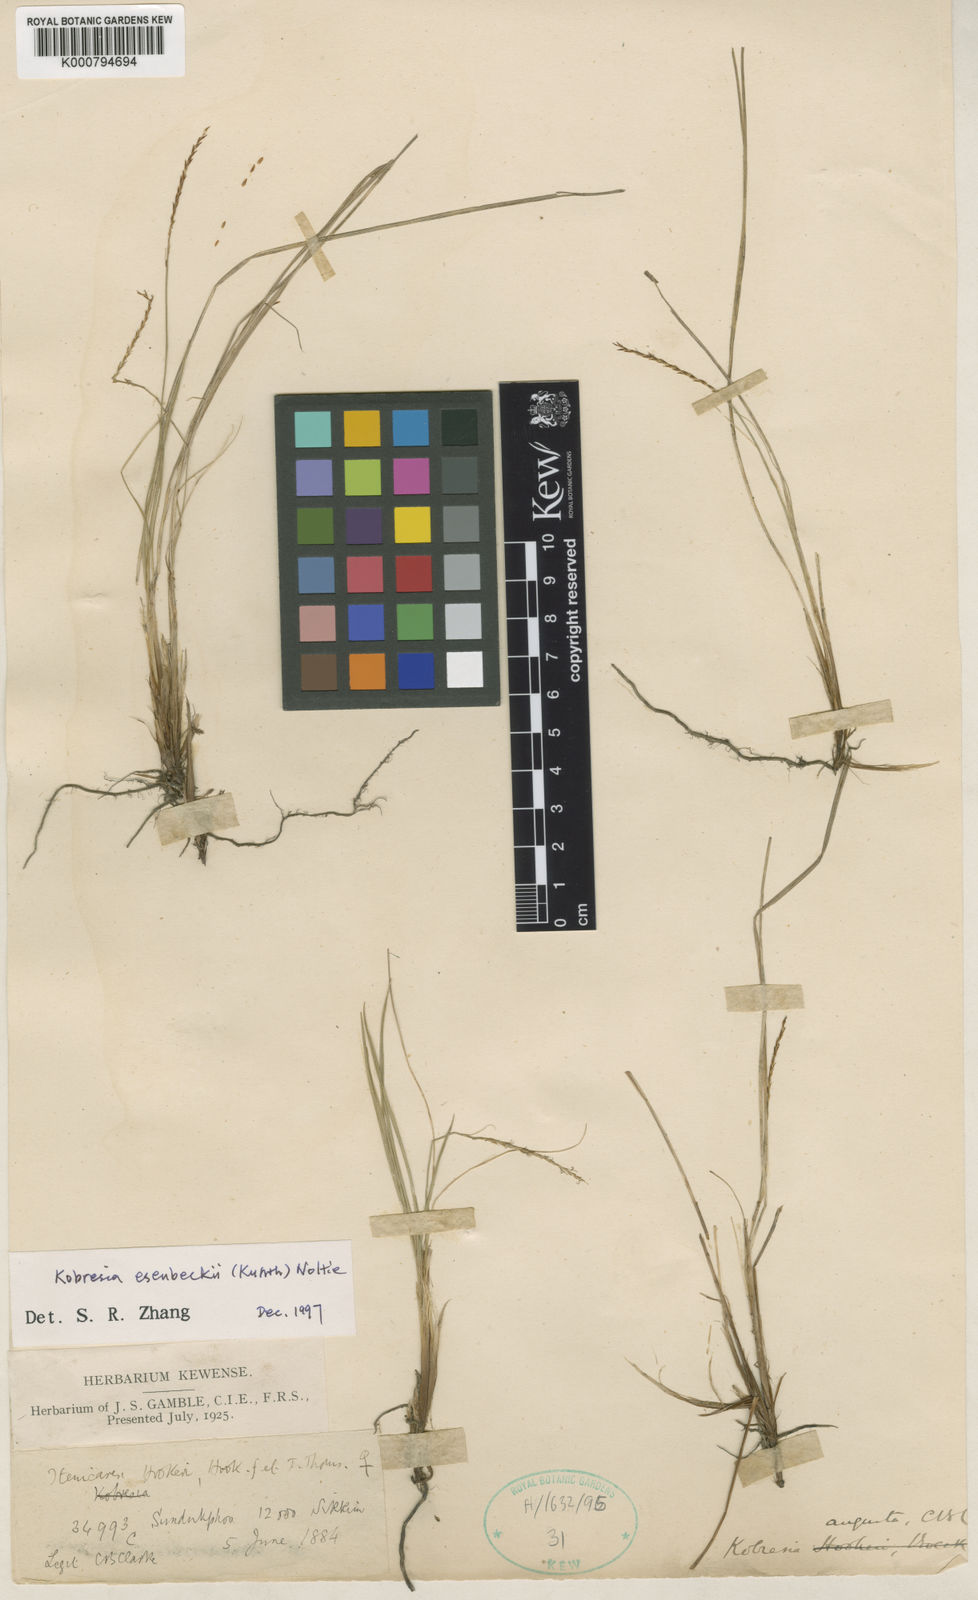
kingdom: Plantae
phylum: Tracheophyta
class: Liliopsida
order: Poales
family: Cyperaceae
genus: Carex
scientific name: Carex esenbeckii
